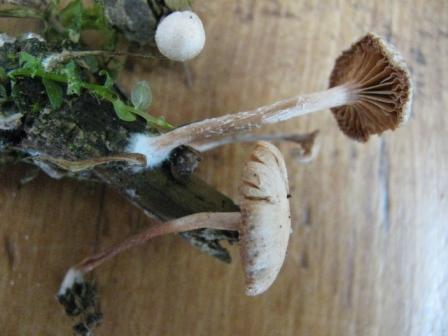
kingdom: Fungi
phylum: Basidiomycota
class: Agaricomycetes
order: Agaricales
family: Tubariaceae
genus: Tubaria
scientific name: Tubaria conspersa
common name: bleg fnughat
